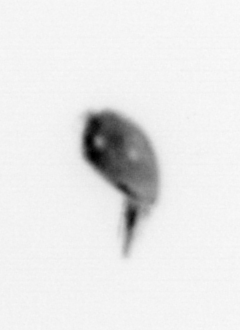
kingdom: Animalia
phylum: Arthropoda
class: Maxillopoda
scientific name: Maxillopoda
